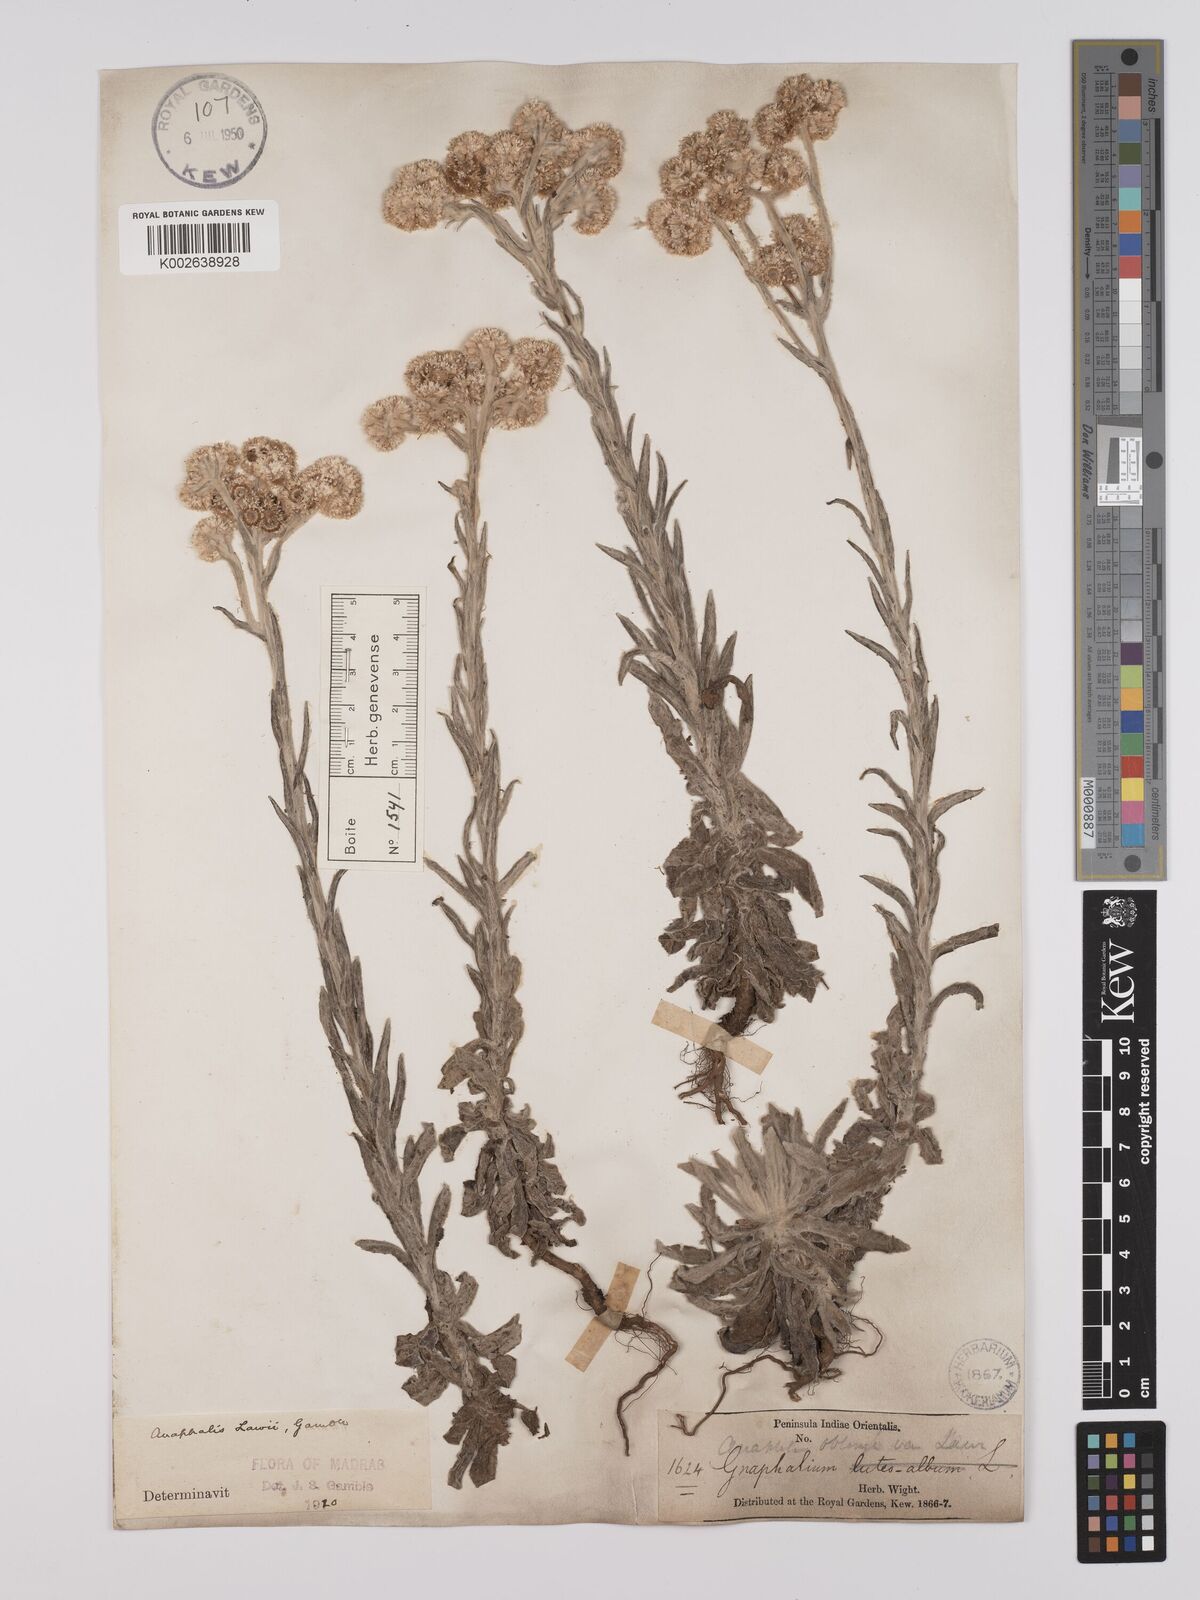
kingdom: Plantae
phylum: Tracheophyta
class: Magnoliopsida
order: Asterales
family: Asteraceae
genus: Anaphalis
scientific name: Anaphalis lawii
